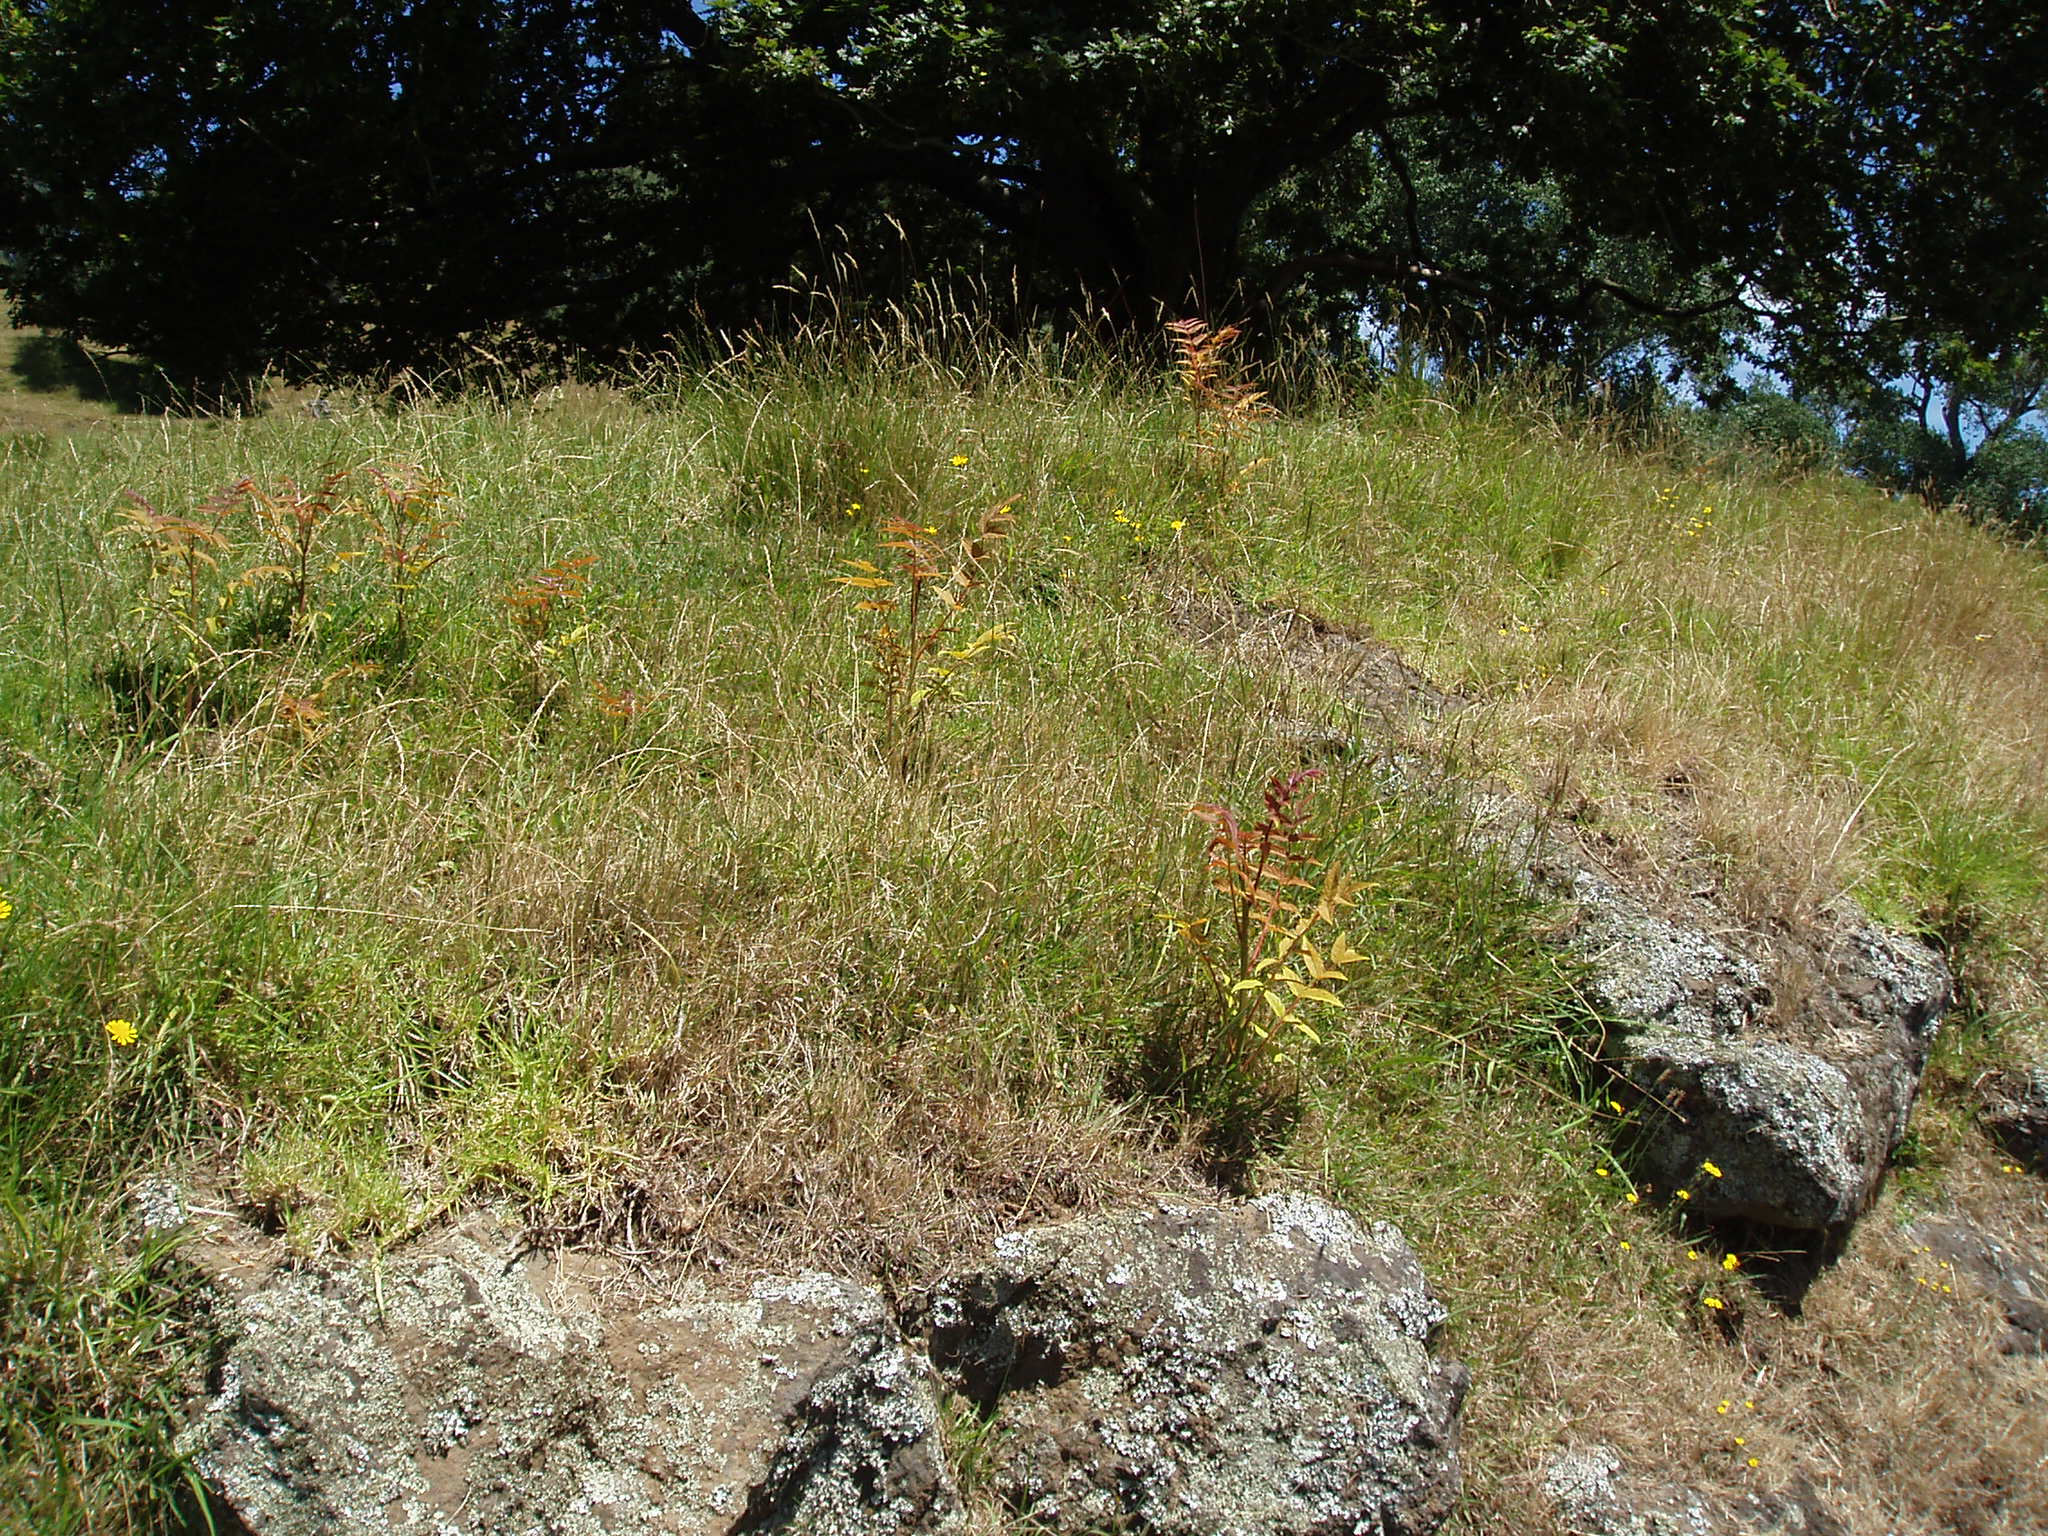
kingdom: Plantae
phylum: Tracheophyta
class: Magnoliopsida
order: Sapindales
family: Simaroubaceae
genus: Ailanthus
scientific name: Ailanthus altissima
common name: Tree-of-heaven
